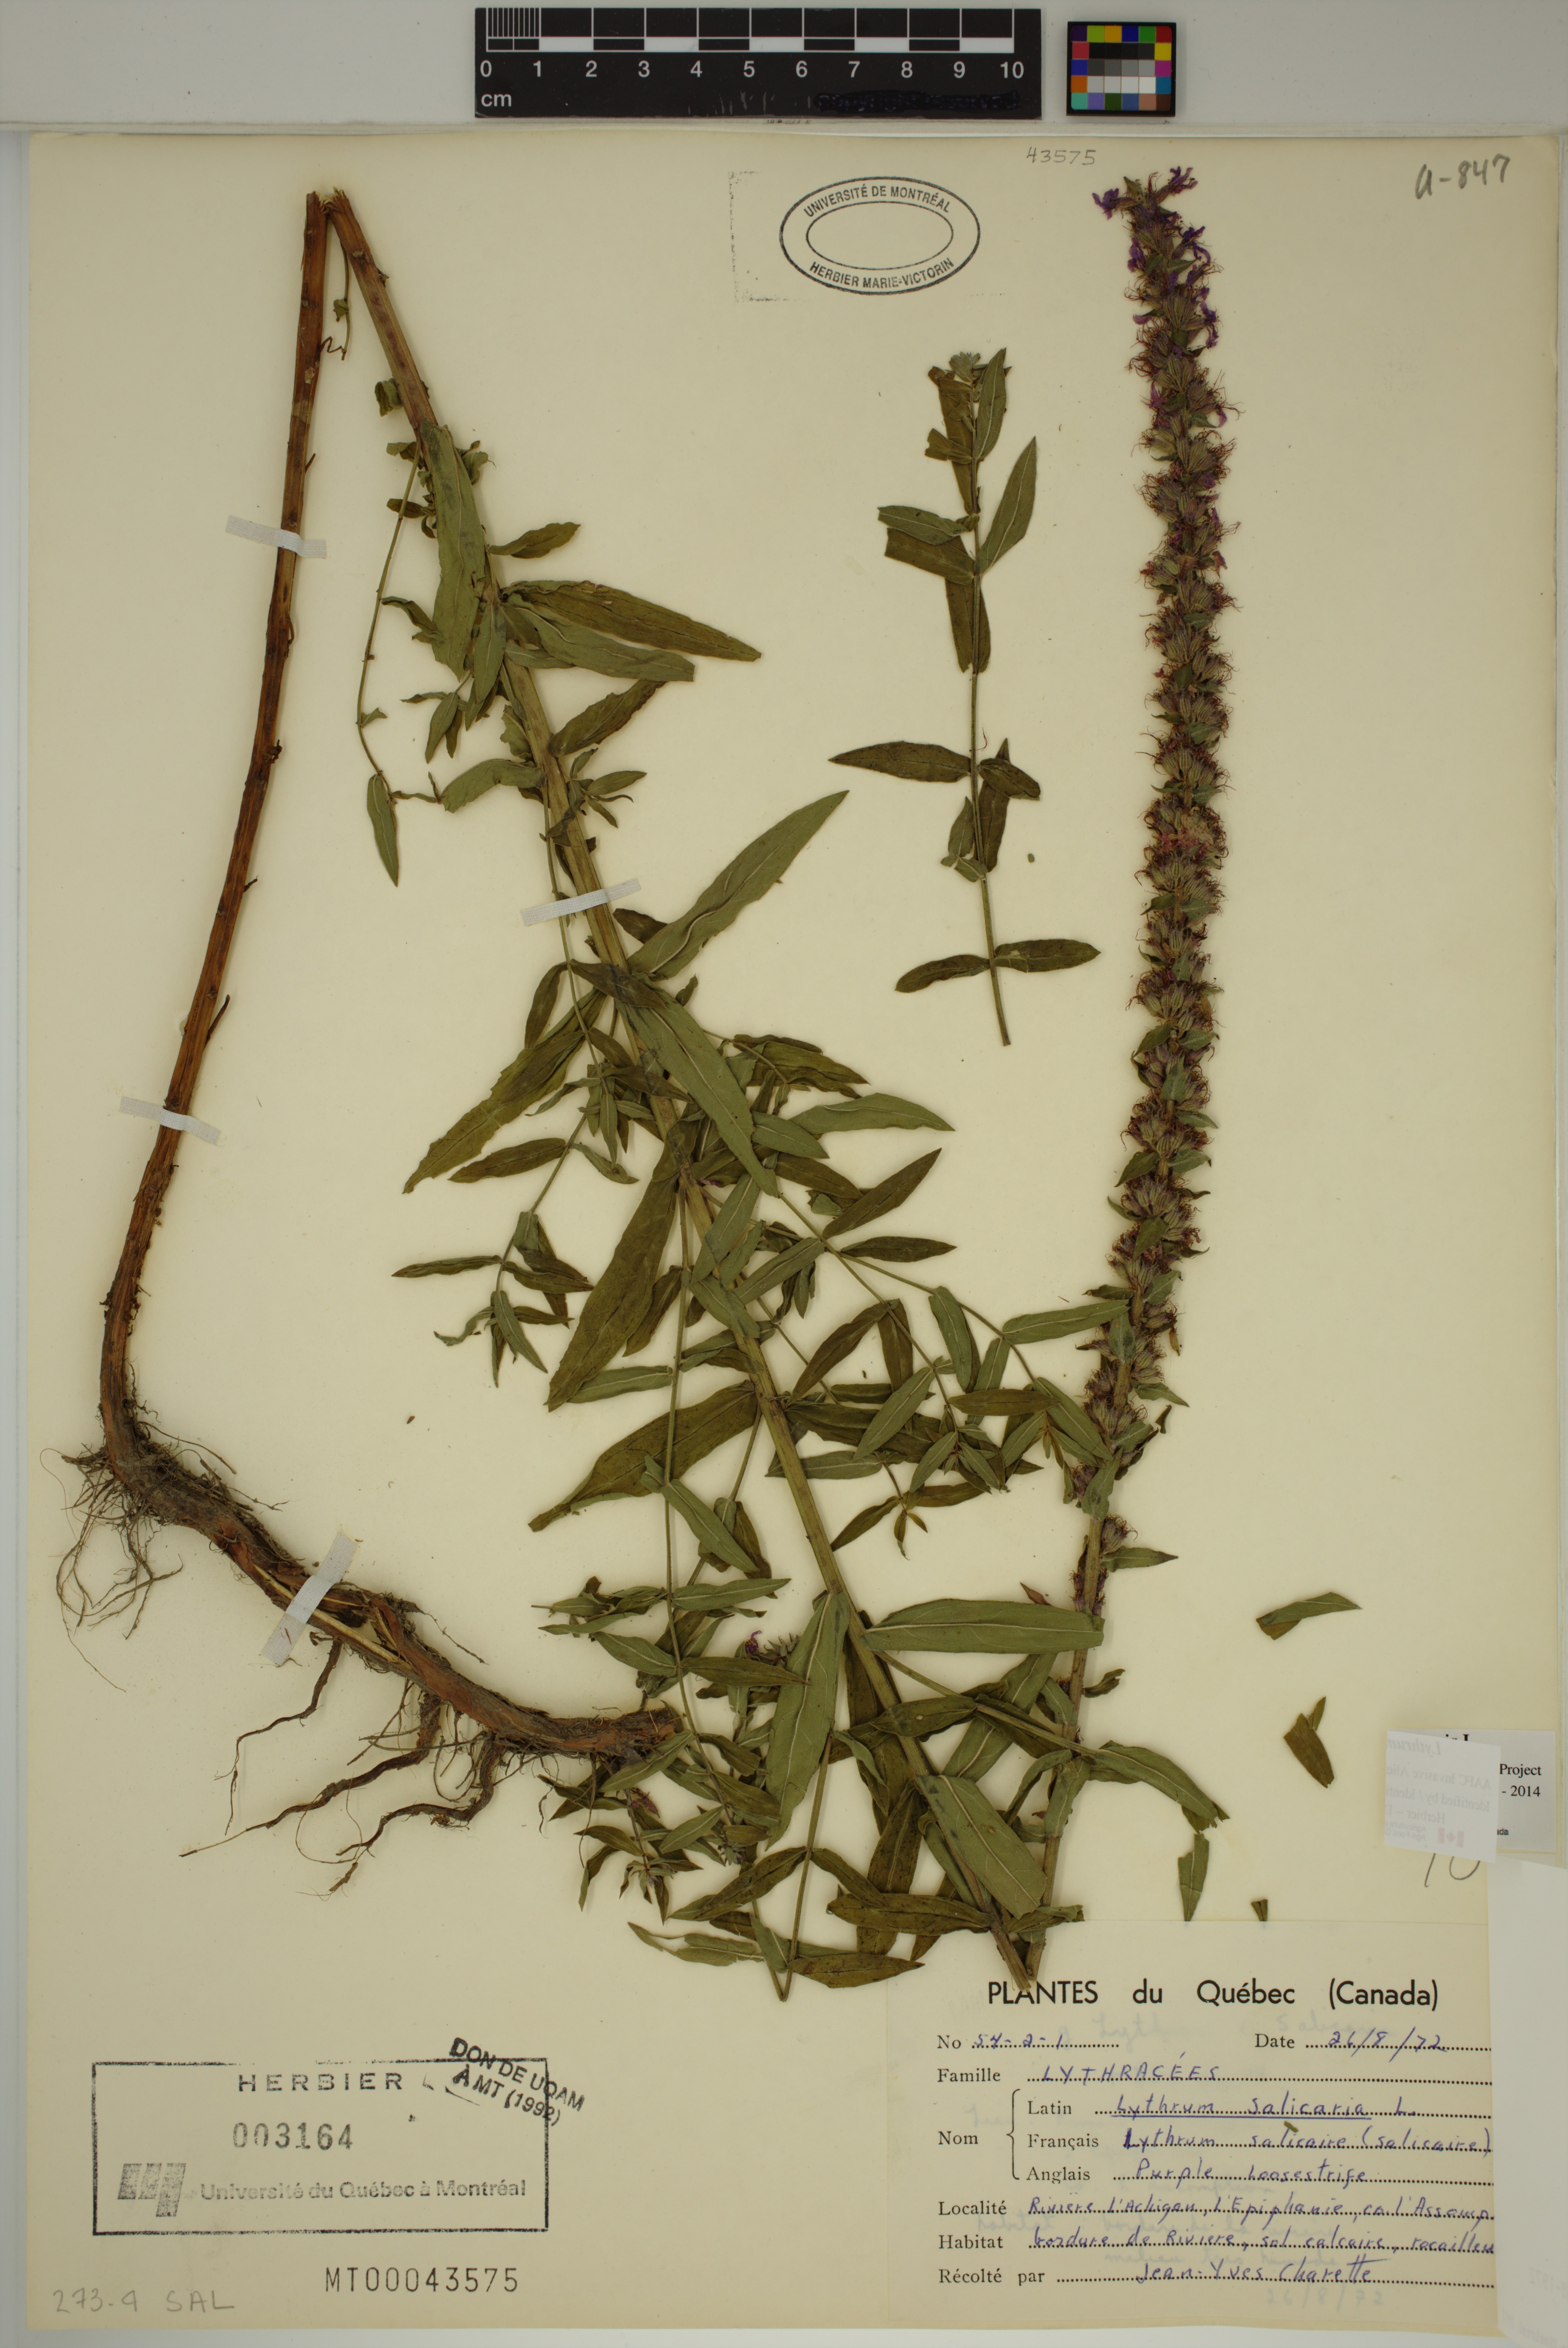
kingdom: Plantae
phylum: Tracheophyta
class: Magnoliopsida
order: Myrtales
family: Lythraceae
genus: Lythrum
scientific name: Lythrum salicaria
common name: Purple loosestrife
